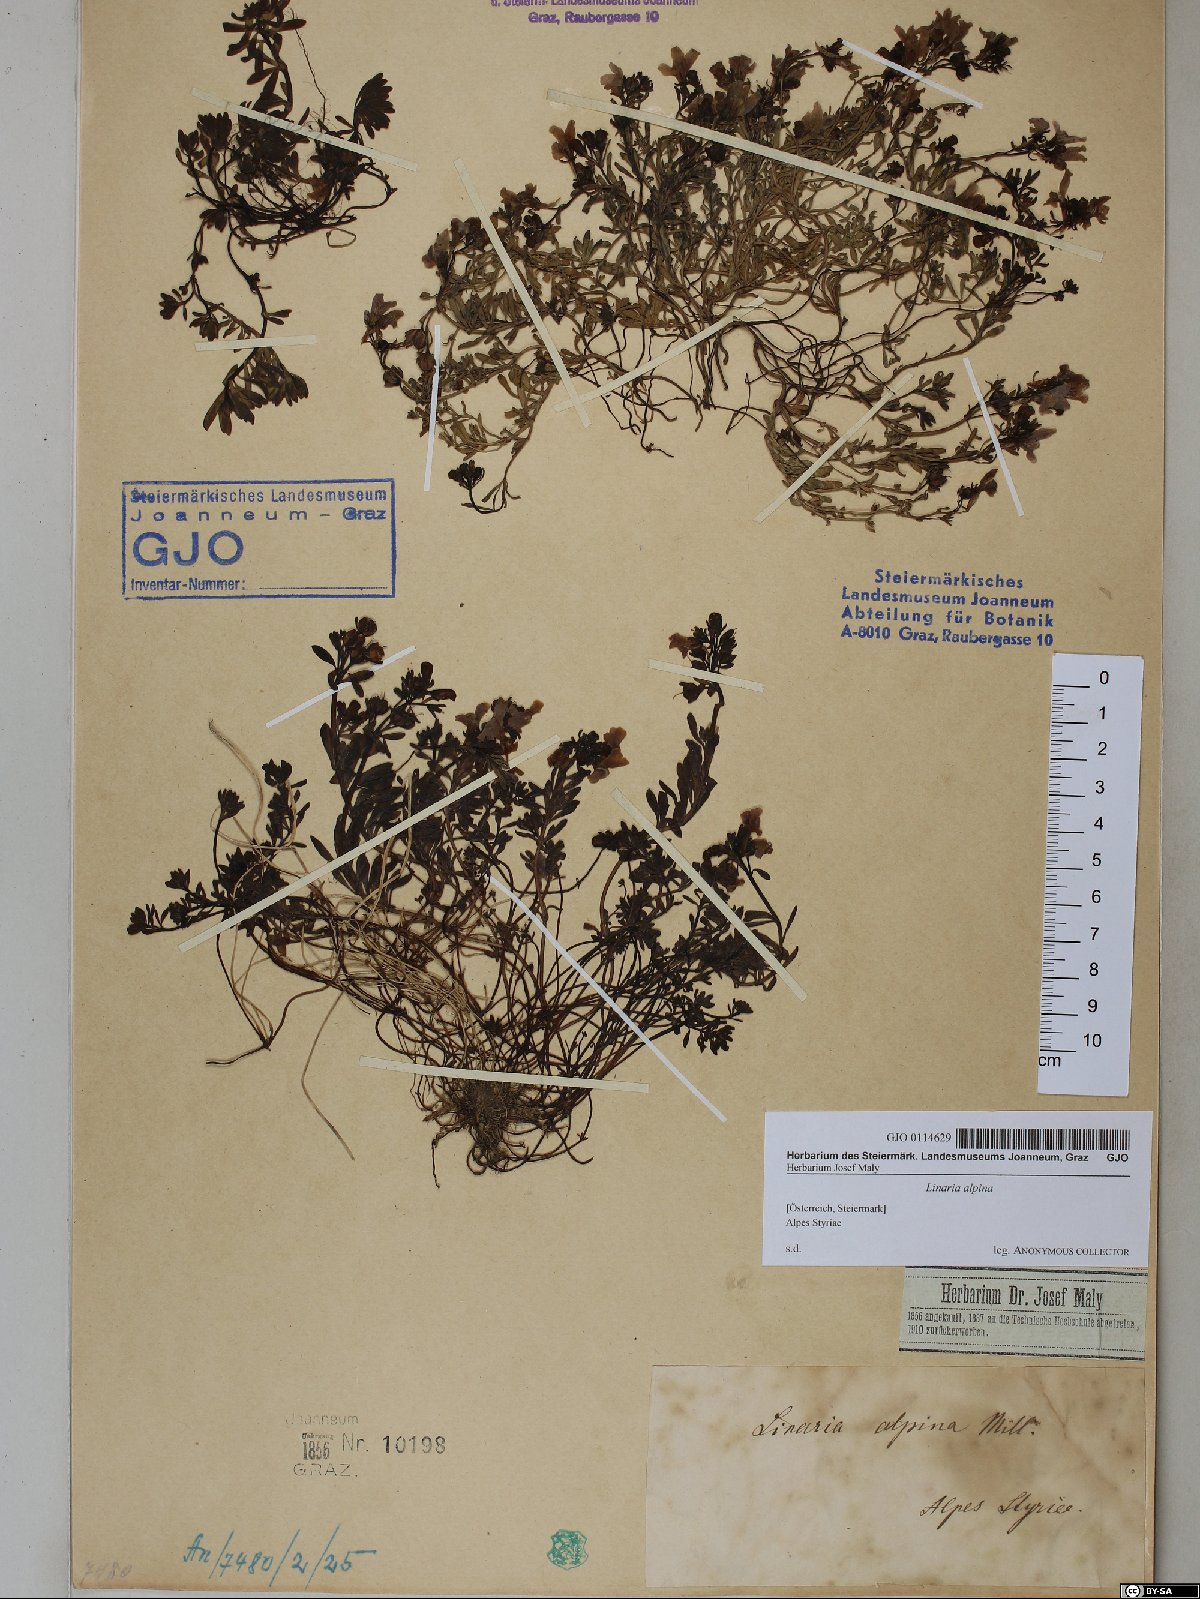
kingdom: Plantae
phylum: Tracheophyta
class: Magnoliopsida
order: Lamiales
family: Plantaginaceae
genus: Linaria
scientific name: Linaria alpina
